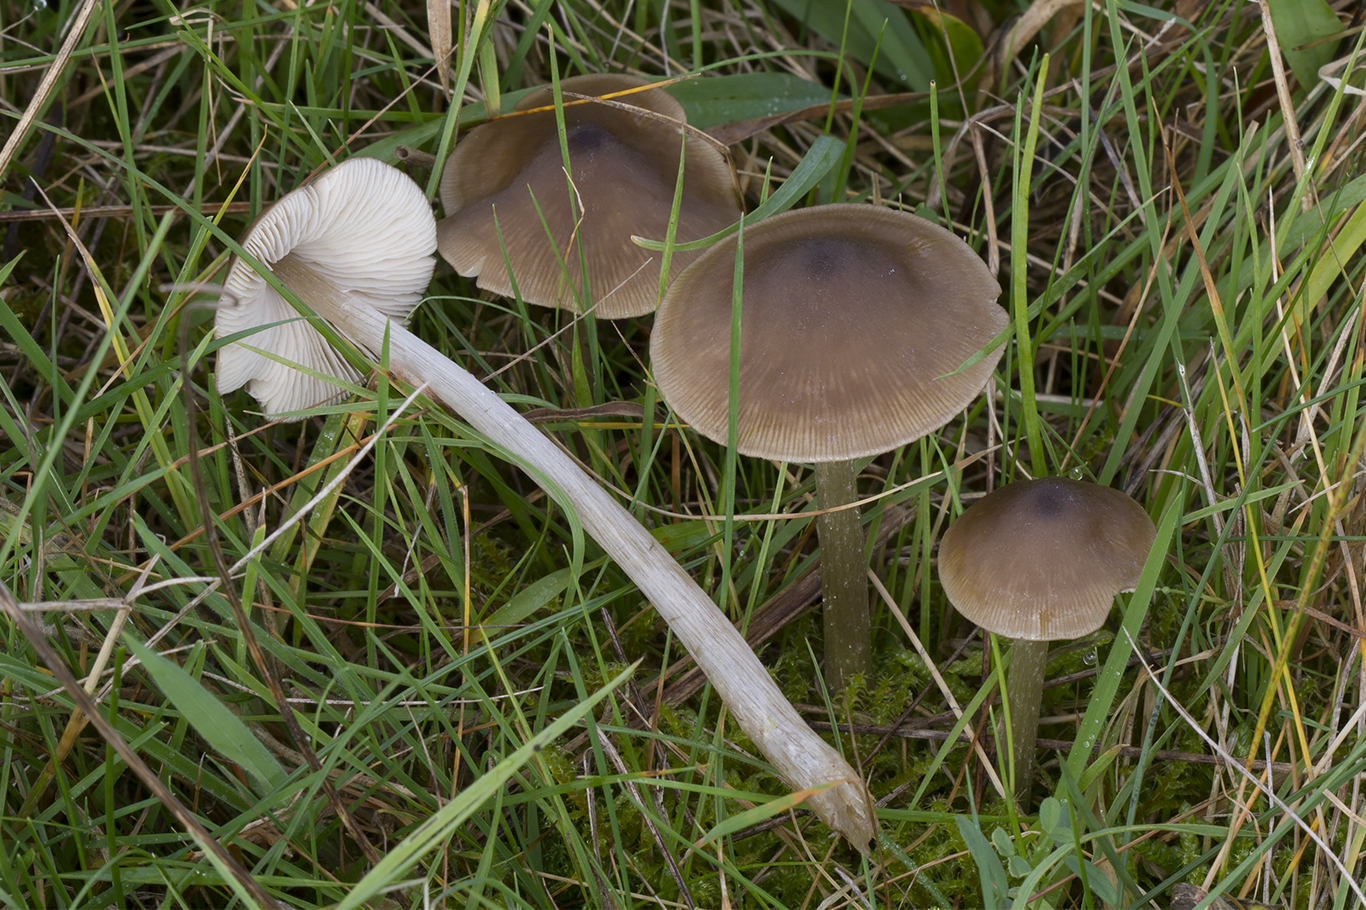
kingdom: Fungi
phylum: Basidiomycota
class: Agaricomycetes
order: Agaricales
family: Entolomataceae
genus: Entoloma
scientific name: Entoloma conferendum
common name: stjernesporet rødblad
